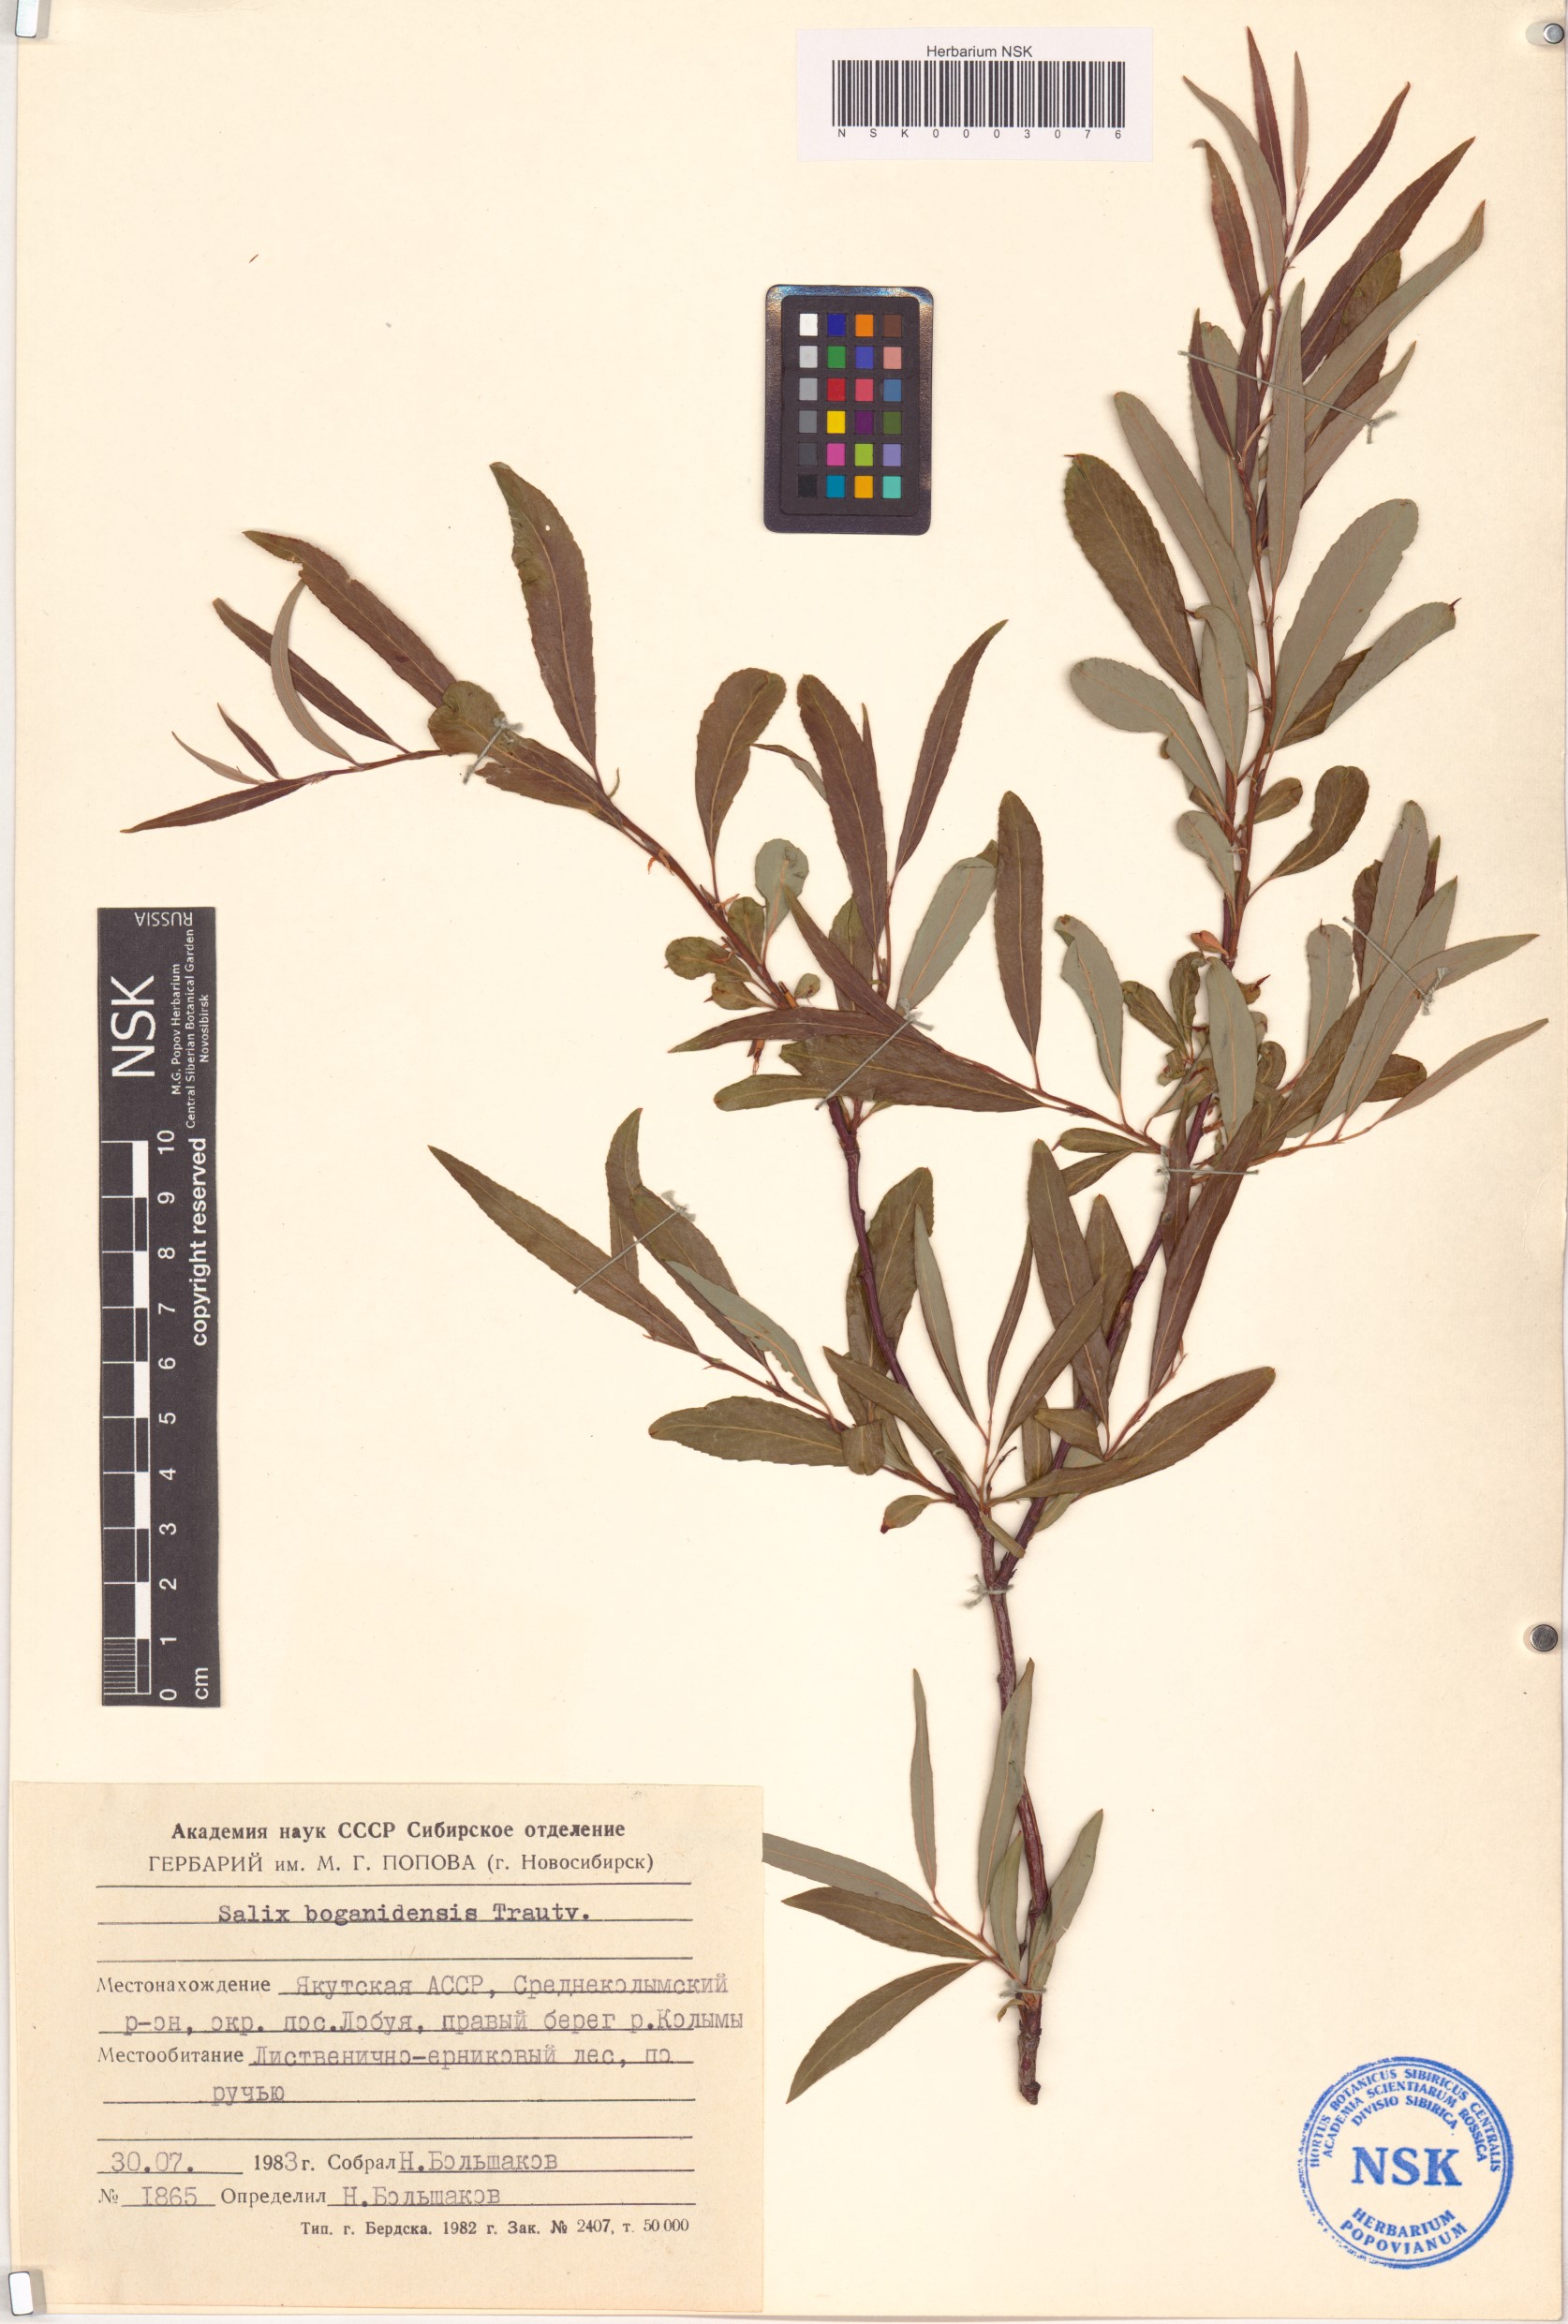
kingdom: Plantae
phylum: Tracheophyta
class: Magnoliopsida
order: Malpighiales
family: Salicaceae
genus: Salix
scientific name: Salix boganidensis
